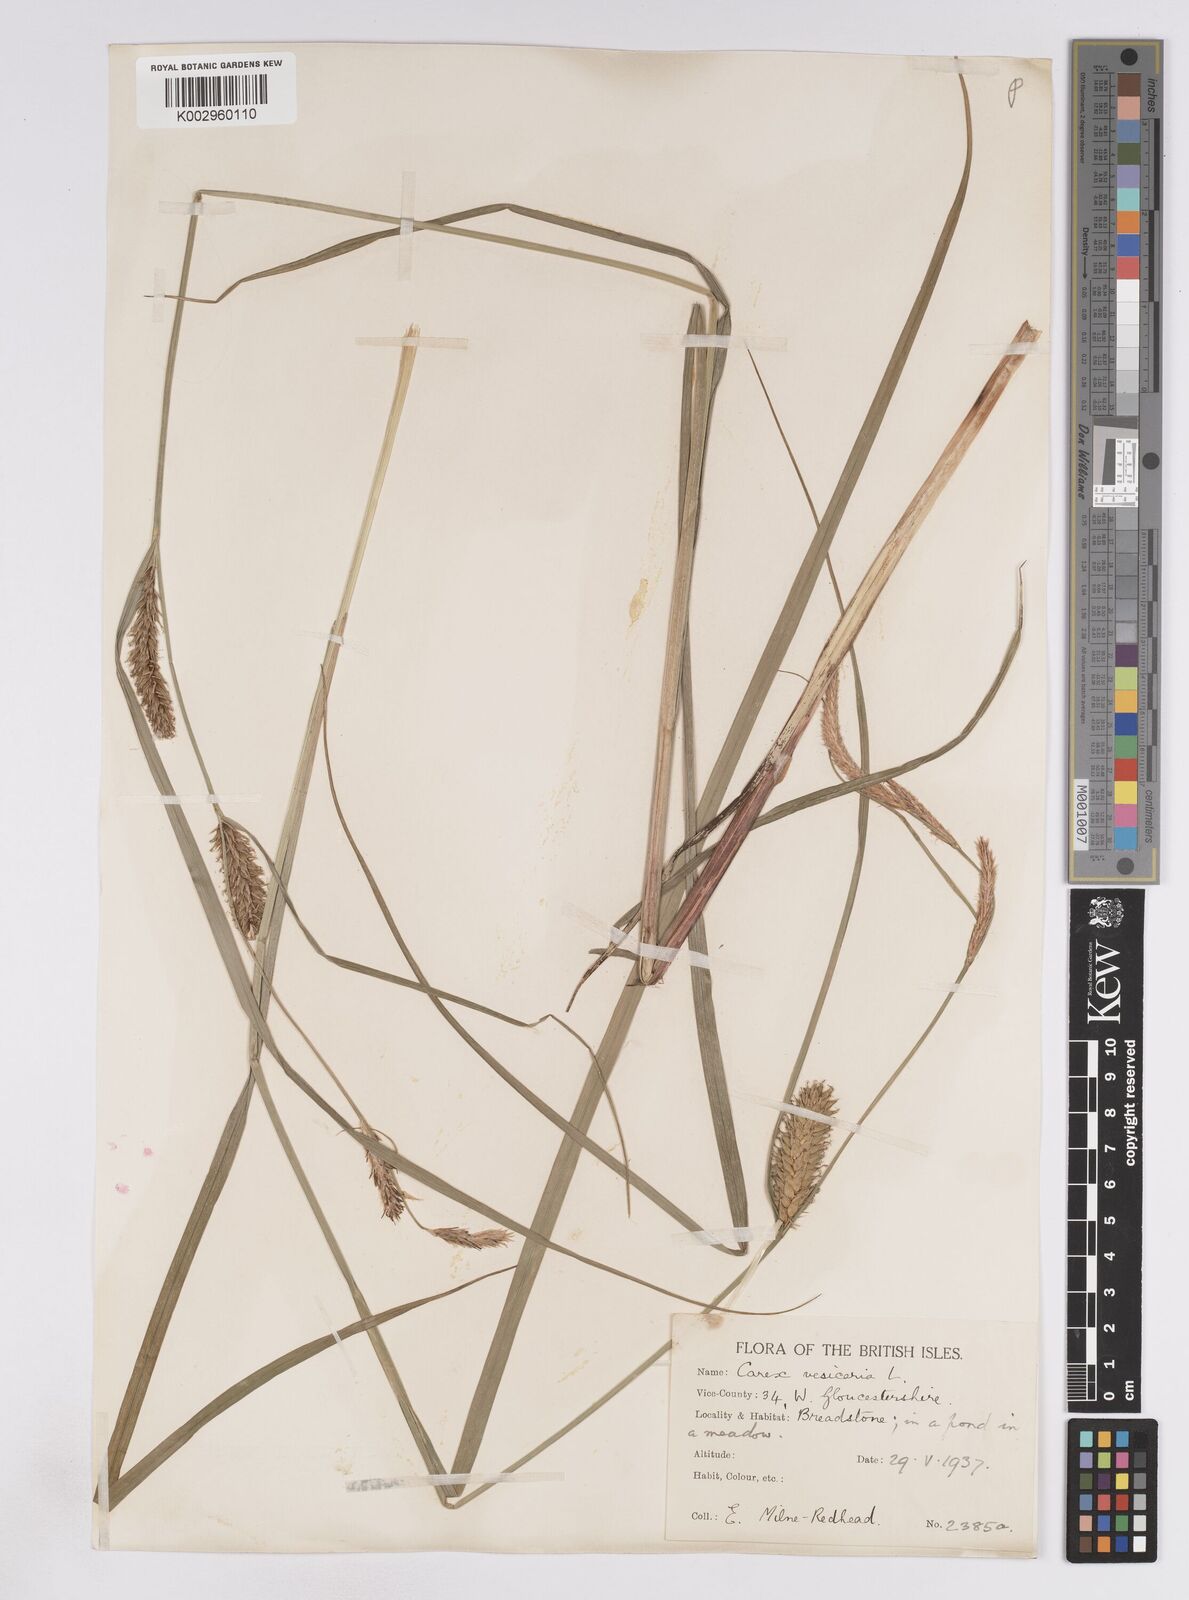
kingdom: Plantae
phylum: Tracheophyta
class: Liliopsida
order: Poales
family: Cyperaceae
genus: Carex
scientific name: Carex vesicaria
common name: Bladder-sedge
